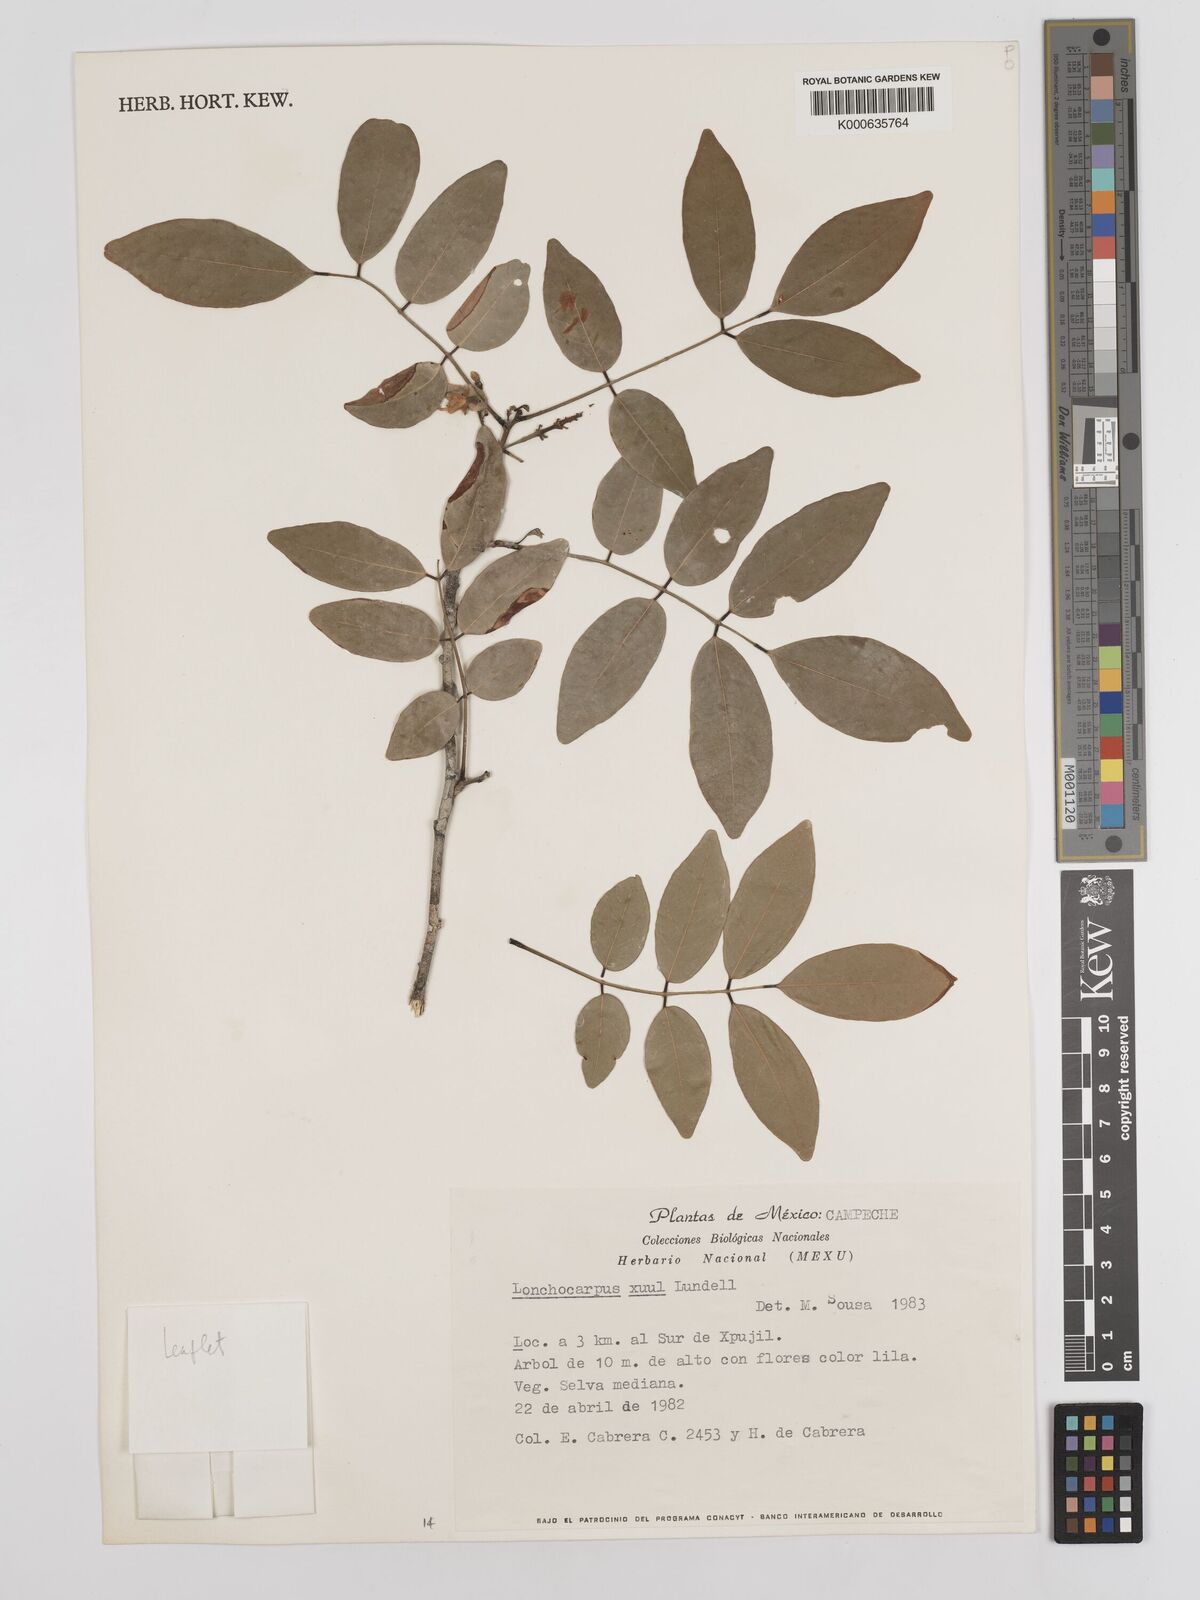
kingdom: Plantae
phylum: Tracheophyta
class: Magnoliopsida
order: Fabales
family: Fabaceae
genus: Lonchocarpus
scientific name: Lonchocarpus guatemalensis
